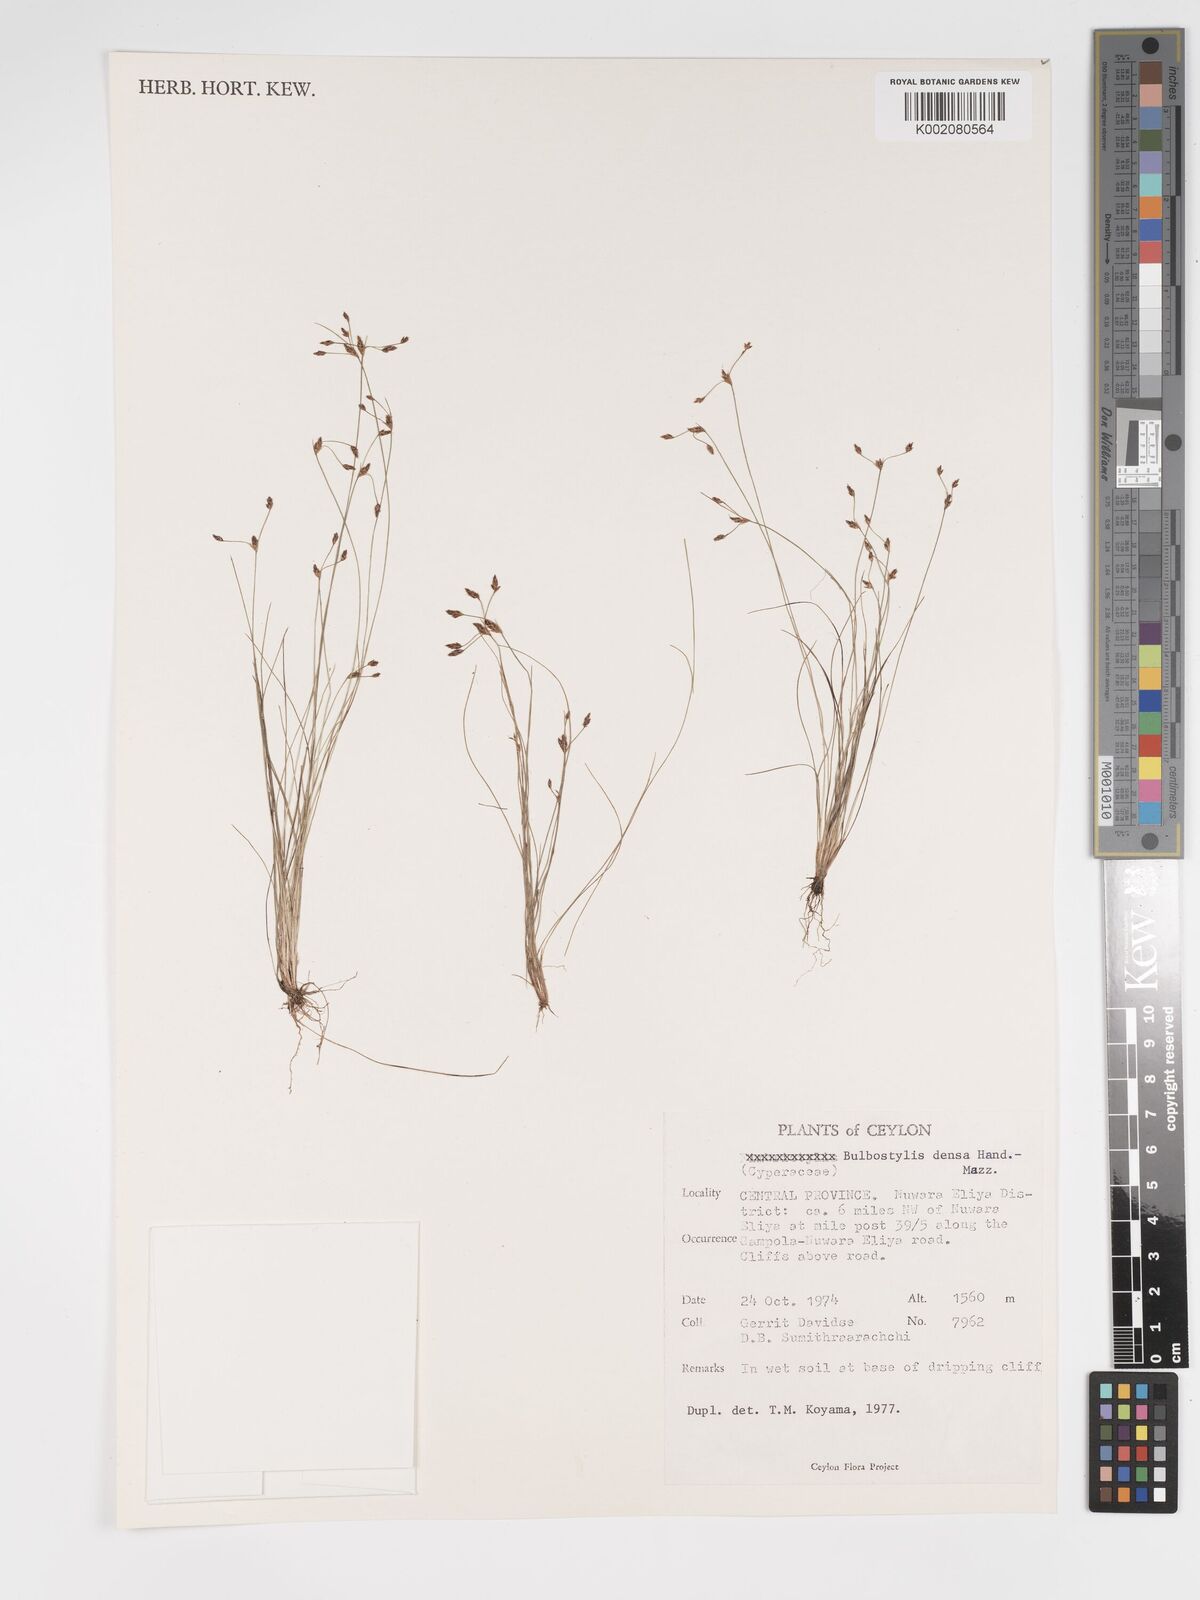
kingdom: Plantae
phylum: Tracheophyta
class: Liliopsida
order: Poales
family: Cyperaceae
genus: Bulbostylis
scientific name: Bulbostylis densa
